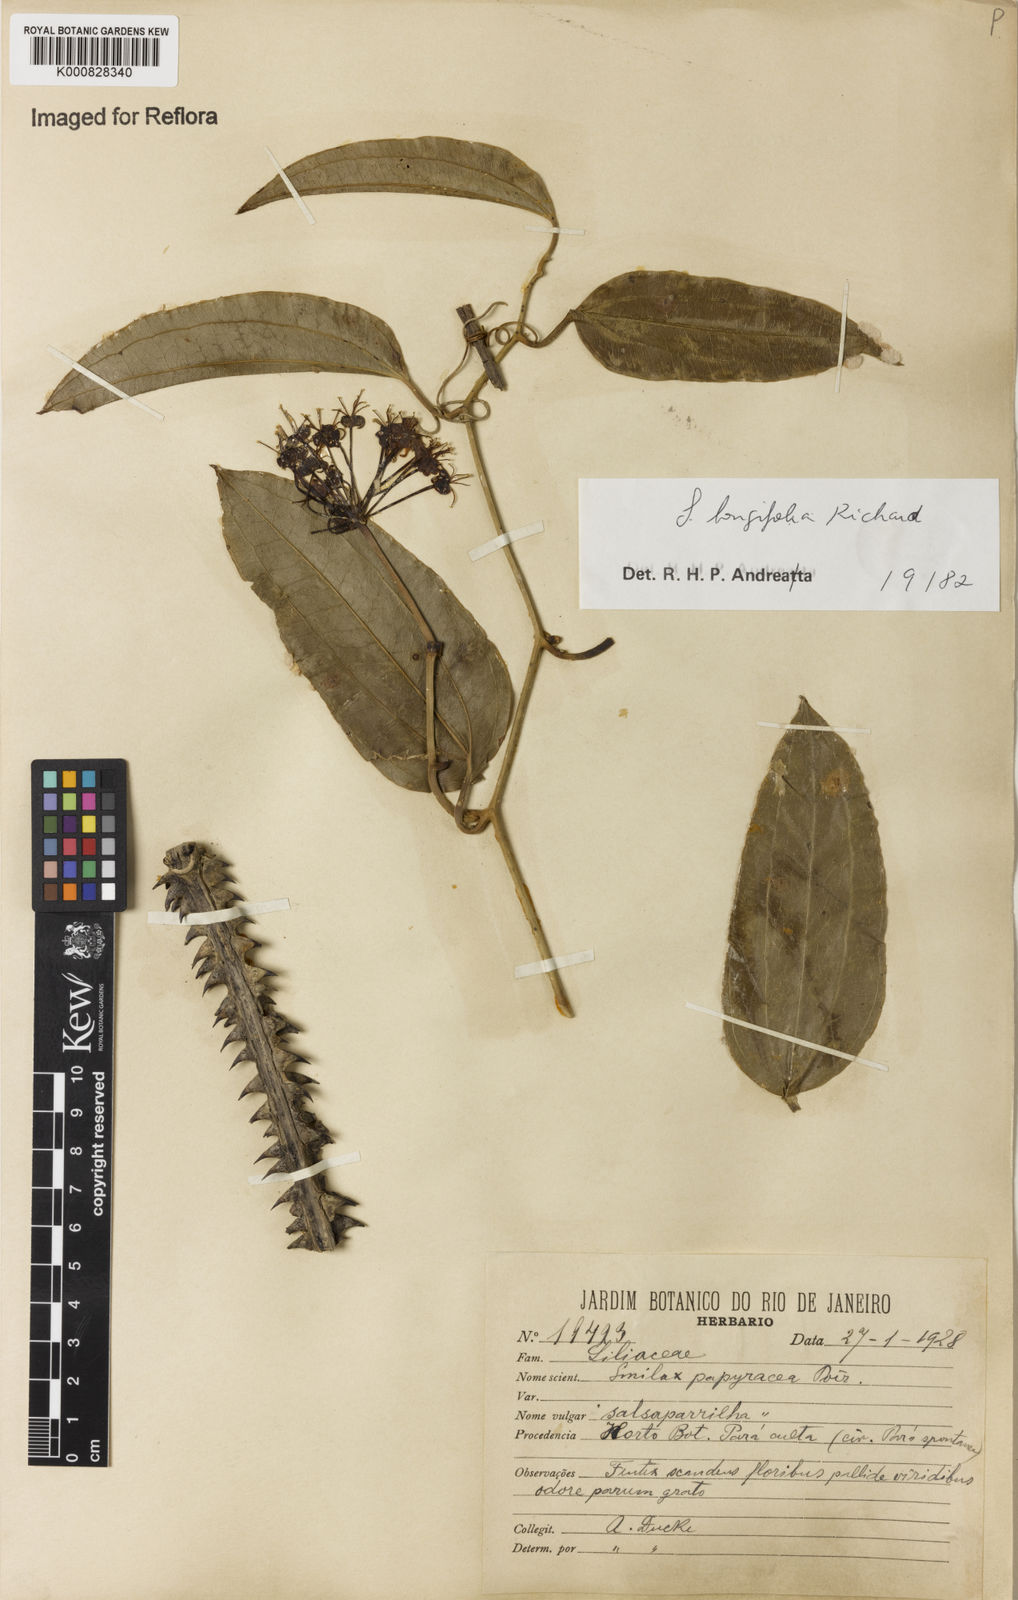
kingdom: Plantae
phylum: Tracheophyta
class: Liliopsida
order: Liliales
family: Smilacaceae
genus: Smilax
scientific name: Smilax longifolia
